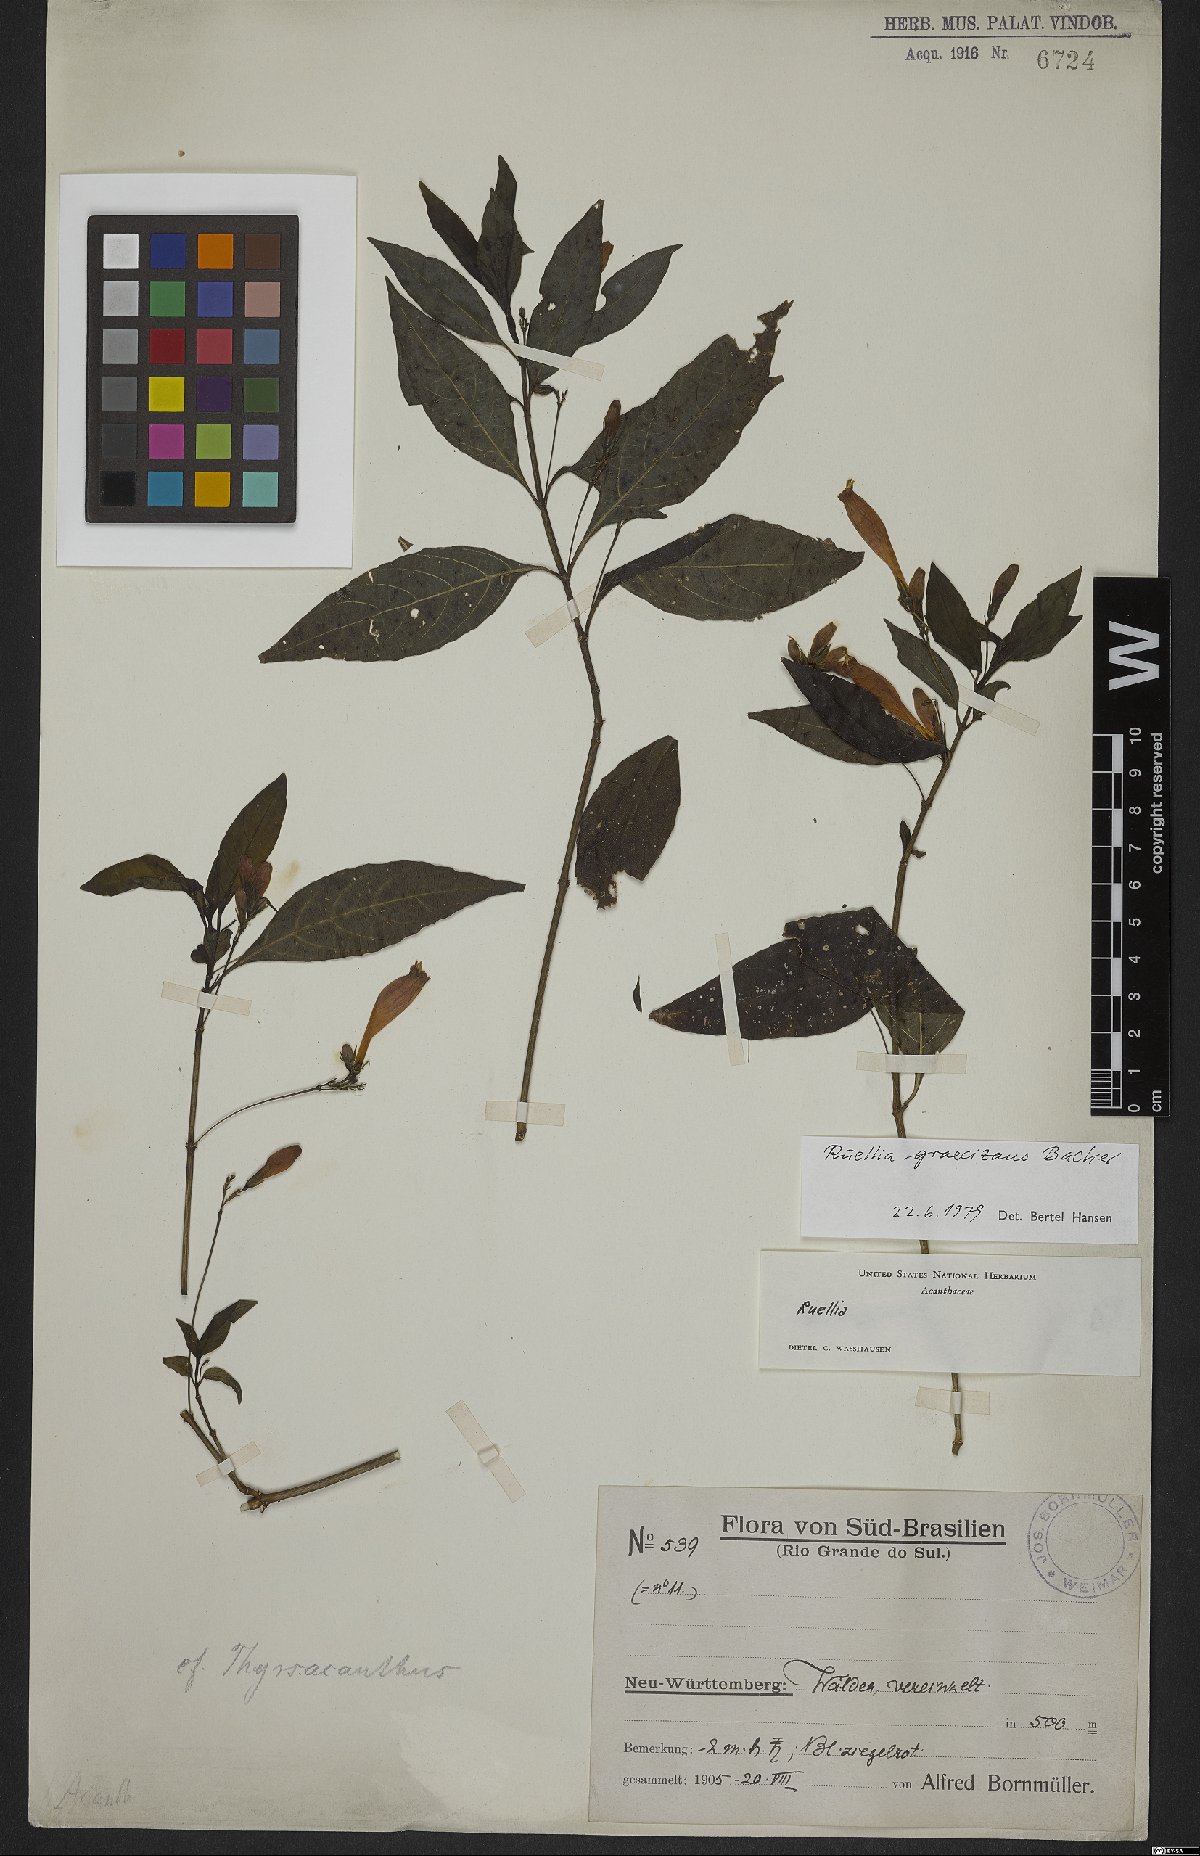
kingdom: Plantae
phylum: Tracheophyta
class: Magnoliopsida
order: Lamiales
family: Acanthaceae
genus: Ruellia
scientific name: Ruellia brevifolia
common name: Tropical wild petunia
